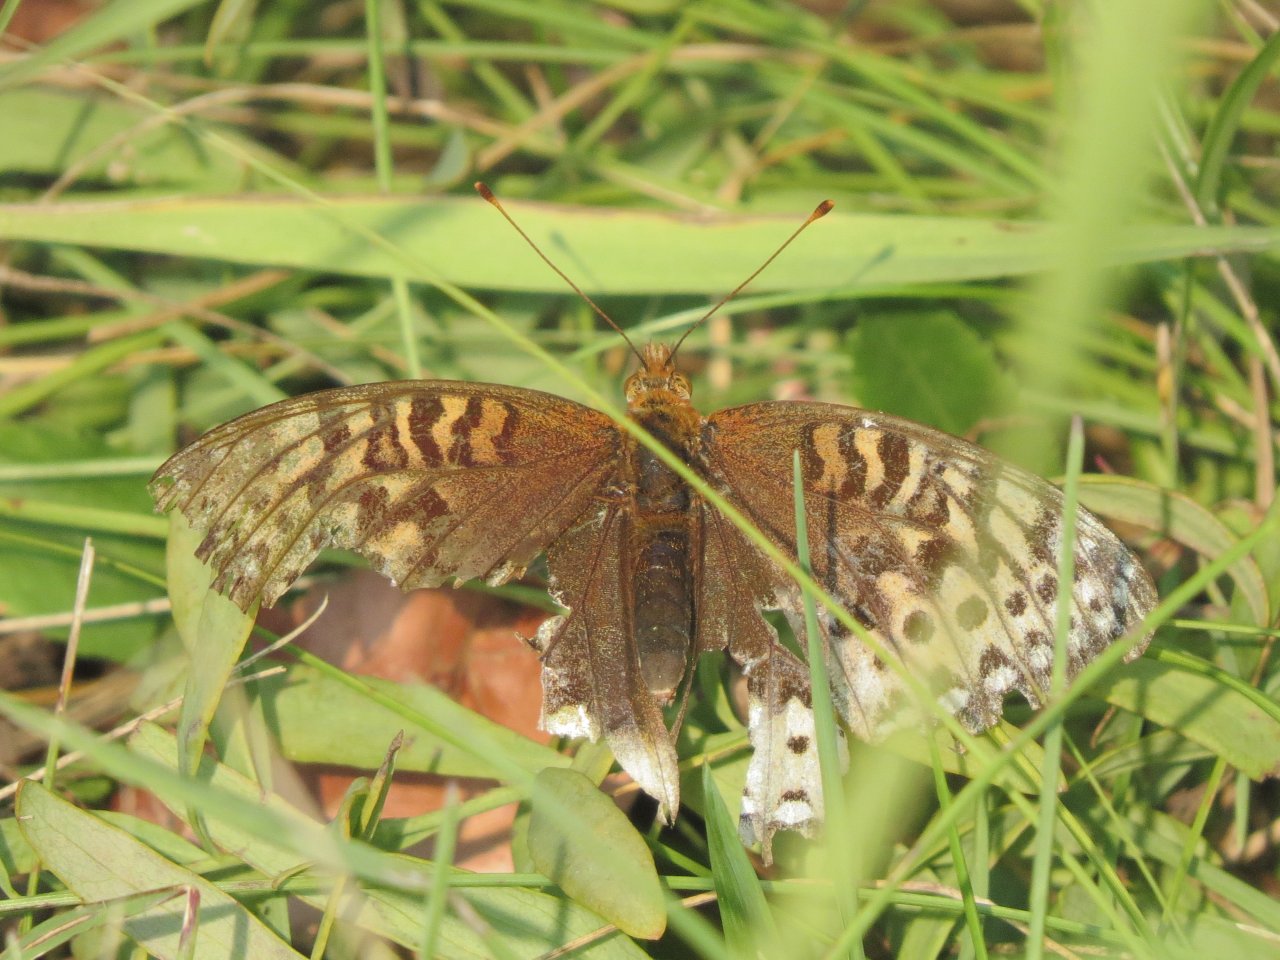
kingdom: Animalia
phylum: Arthropoda
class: Insecta
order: Lepidoptera
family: Nymphalidae
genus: Speyeria
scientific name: Speyeria cybele
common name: Great Spangled Fritillary
